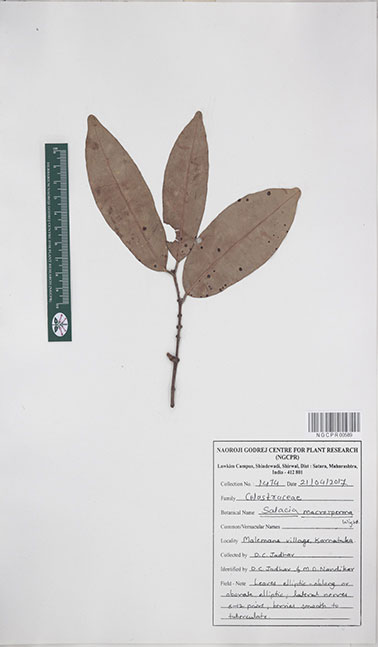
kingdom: Plantae
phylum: Tracheophyta
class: Magnoliopsida
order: Celastrales
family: Celastraceae
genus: Salacia
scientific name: Salacia macrosperma
